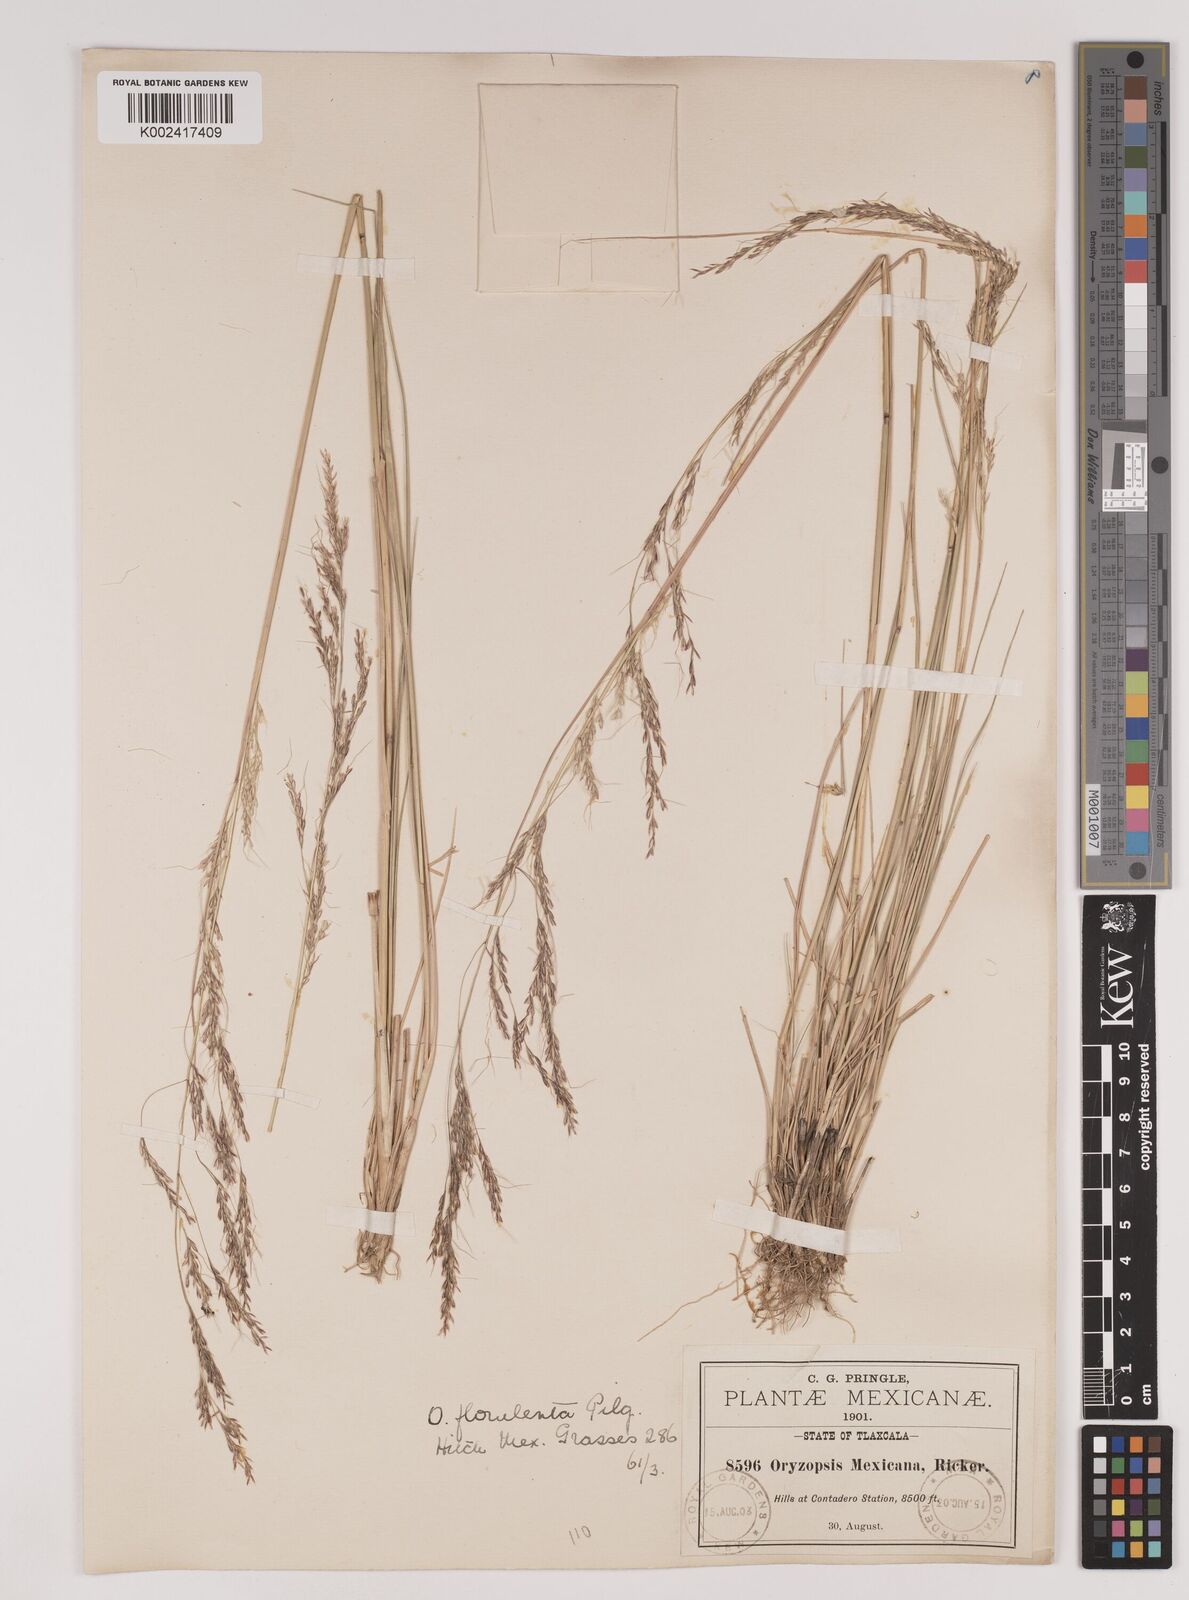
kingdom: Plantae
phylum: Tracheophyta
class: Liliopsida
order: Poales
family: Poaceae
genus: Nassella
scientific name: Nassella caespitosa
